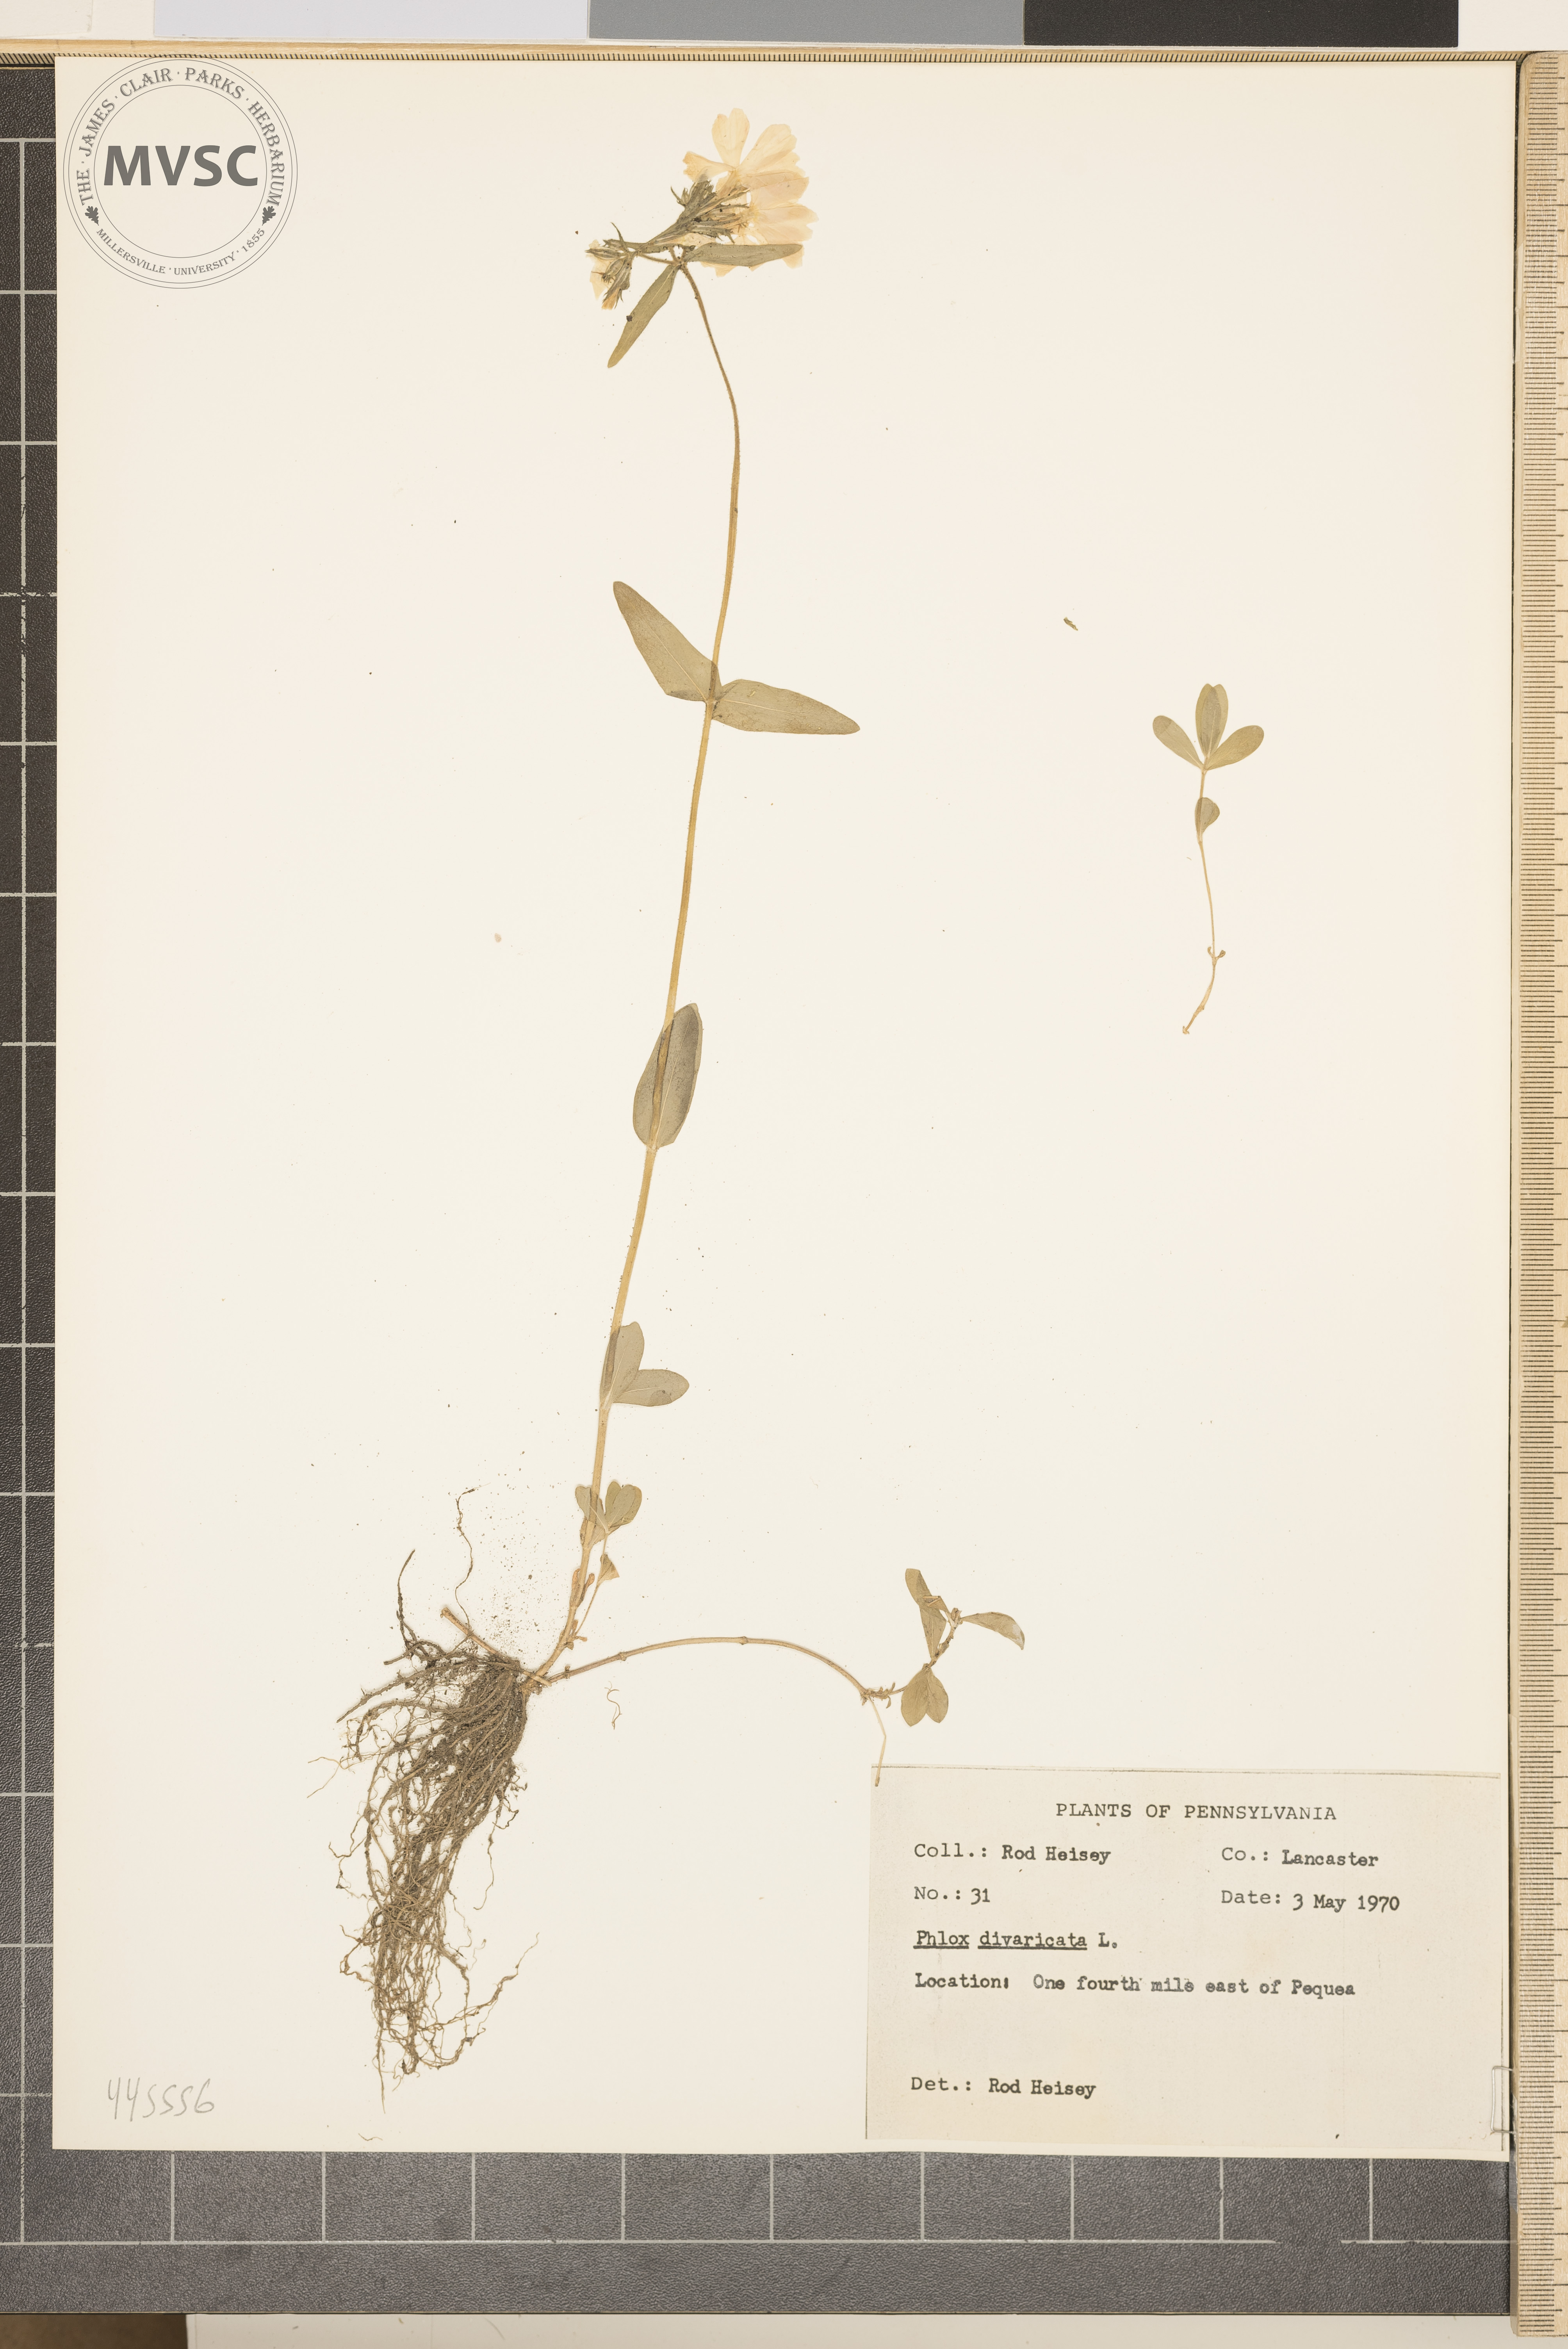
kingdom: Plantae
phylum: Tracheophyta
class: Magnoliopsida
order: Ericales
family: Polemoniaceae
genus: Phlox
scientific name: Phlox divaricata
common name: Blue phlox
